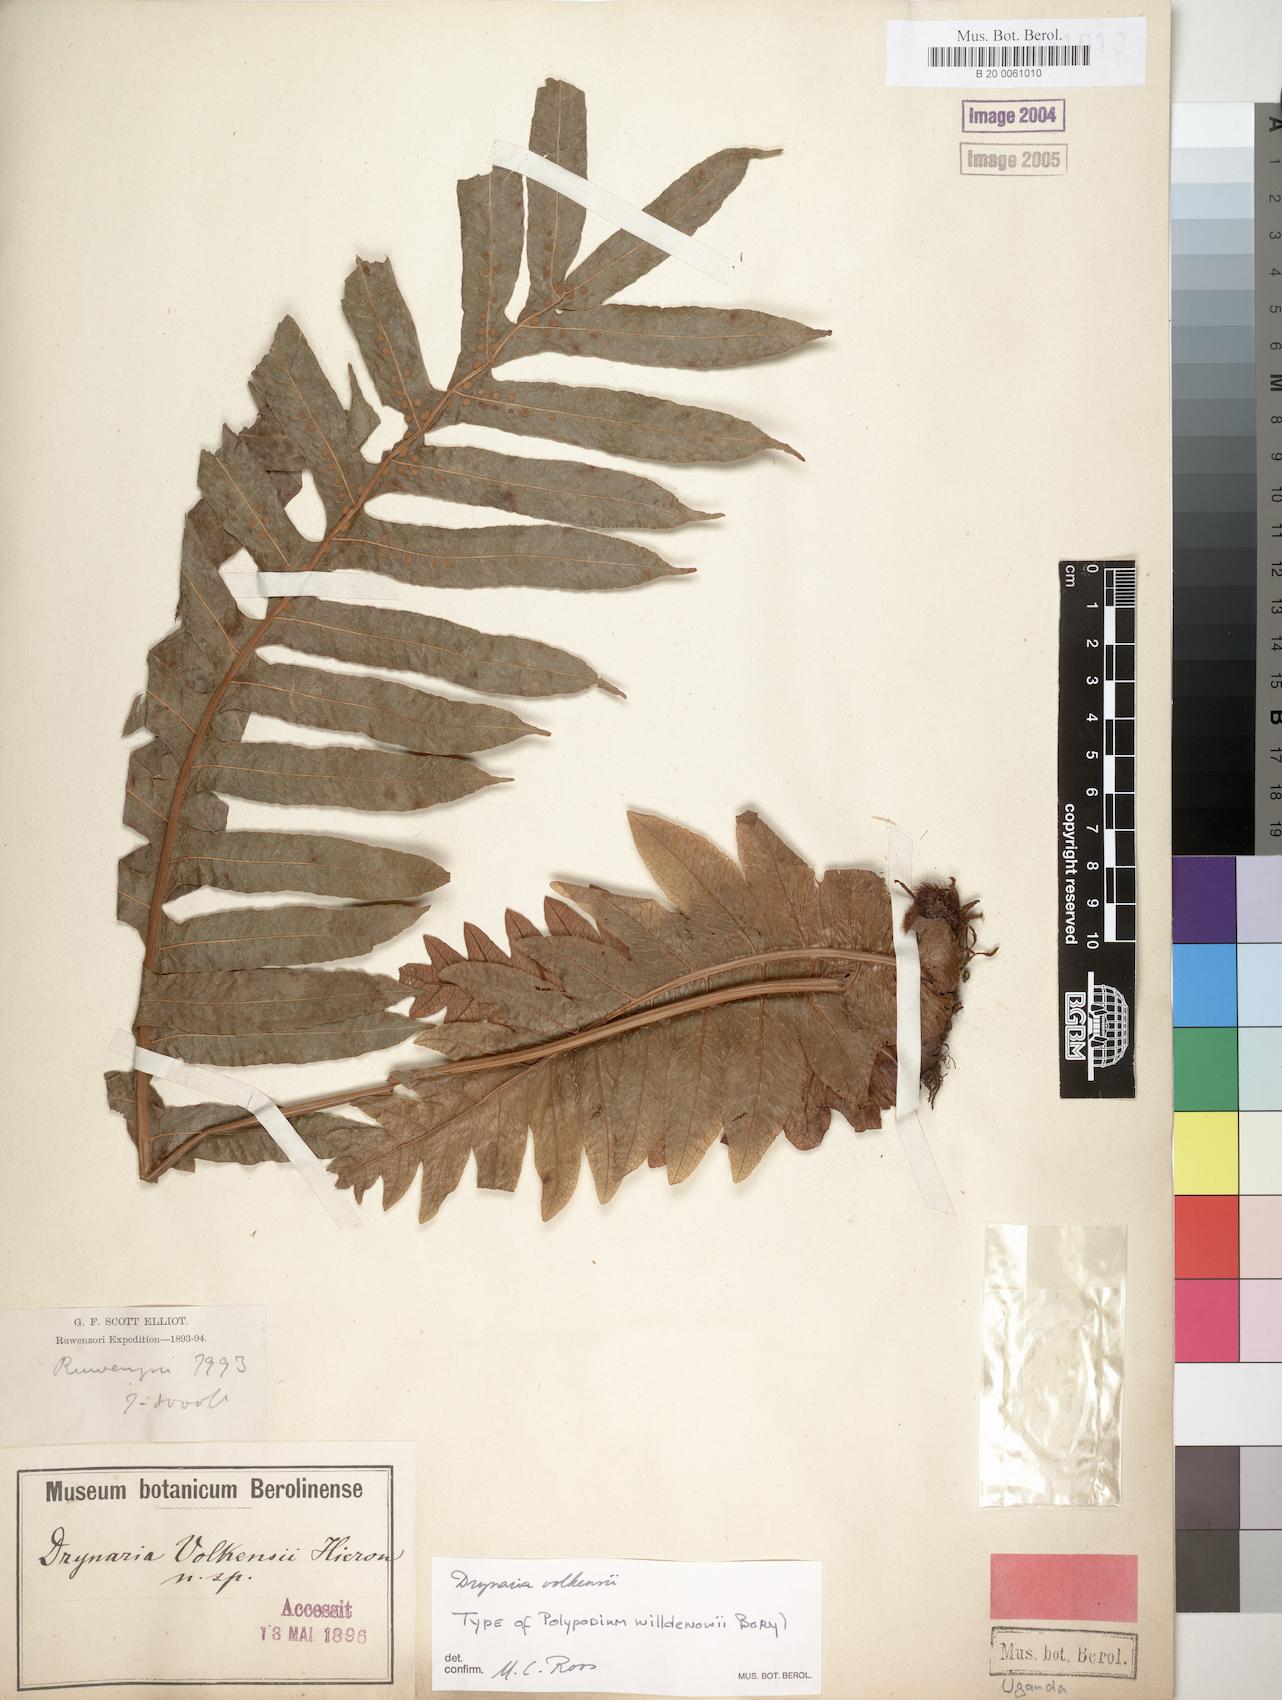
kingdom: Plantae
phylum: Tracheophyta
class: Polypodiopsida
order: Polypodiales
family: Polypodiaceae
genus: Drynaria
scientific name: Drynaria volkensii
